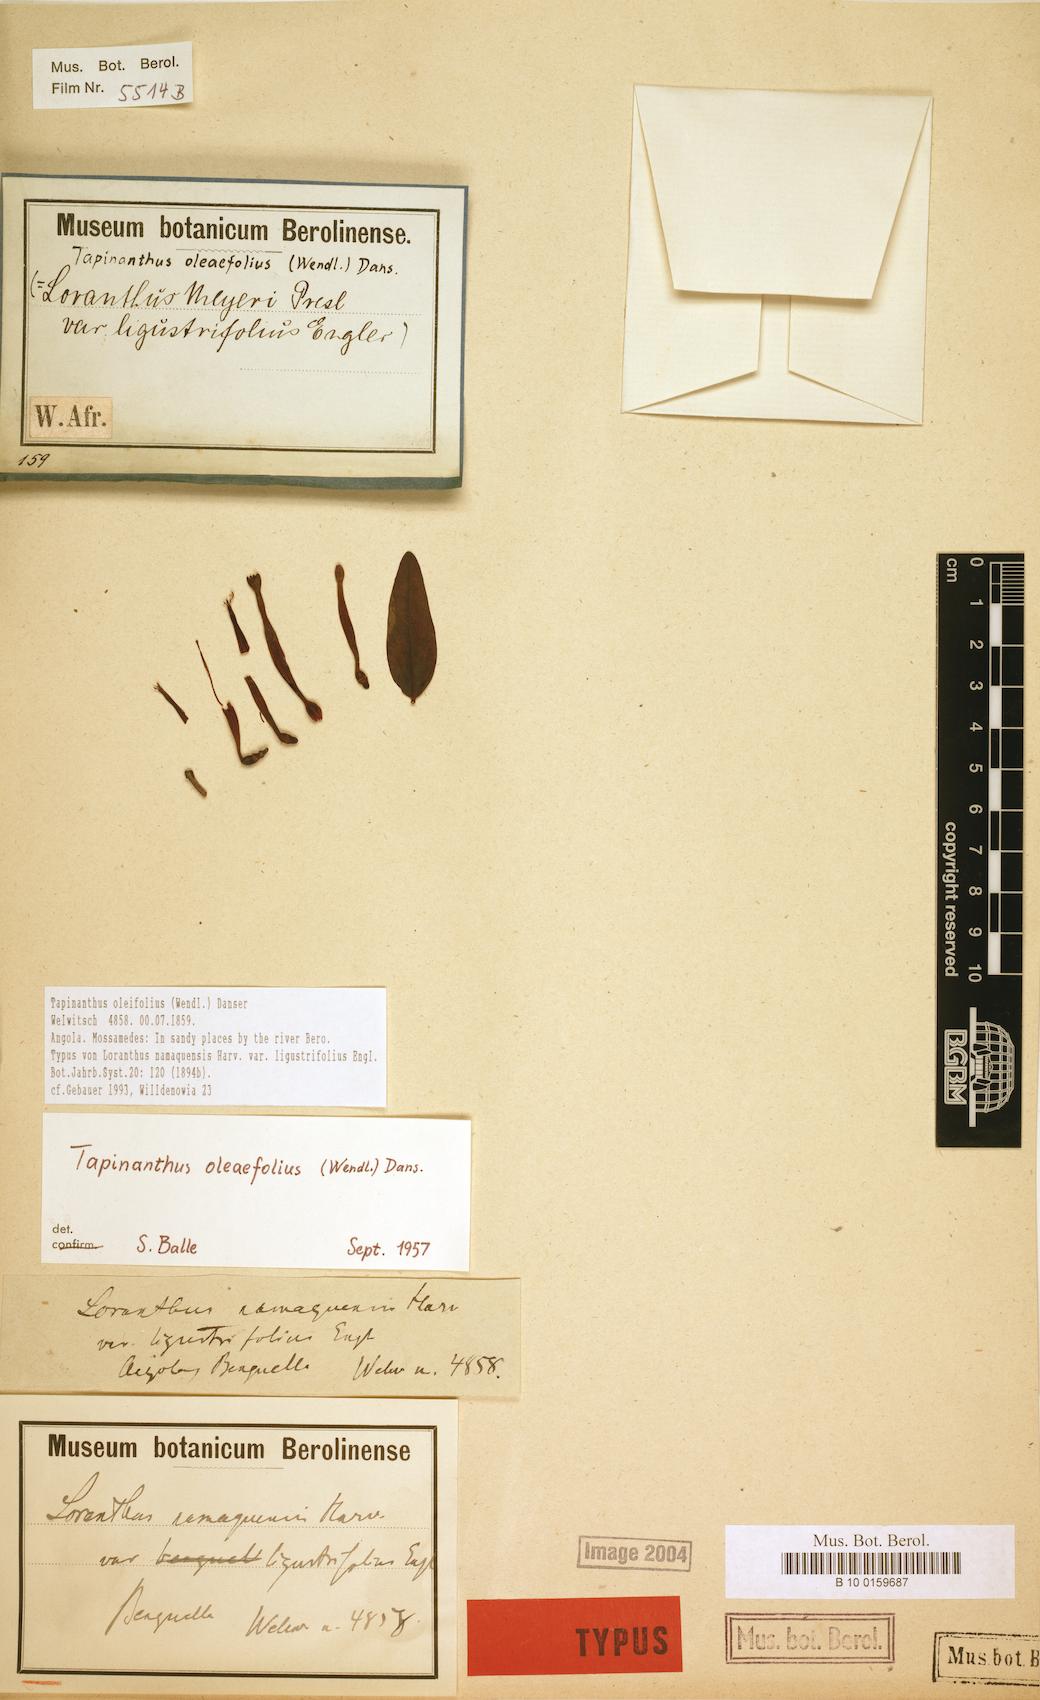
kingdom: Plantae
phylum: Tracheophyta
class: Magnoliopsida
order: Santalales
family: Loranthaceae
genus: Tapinanthus
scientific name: Tapinanthus oleifolius
